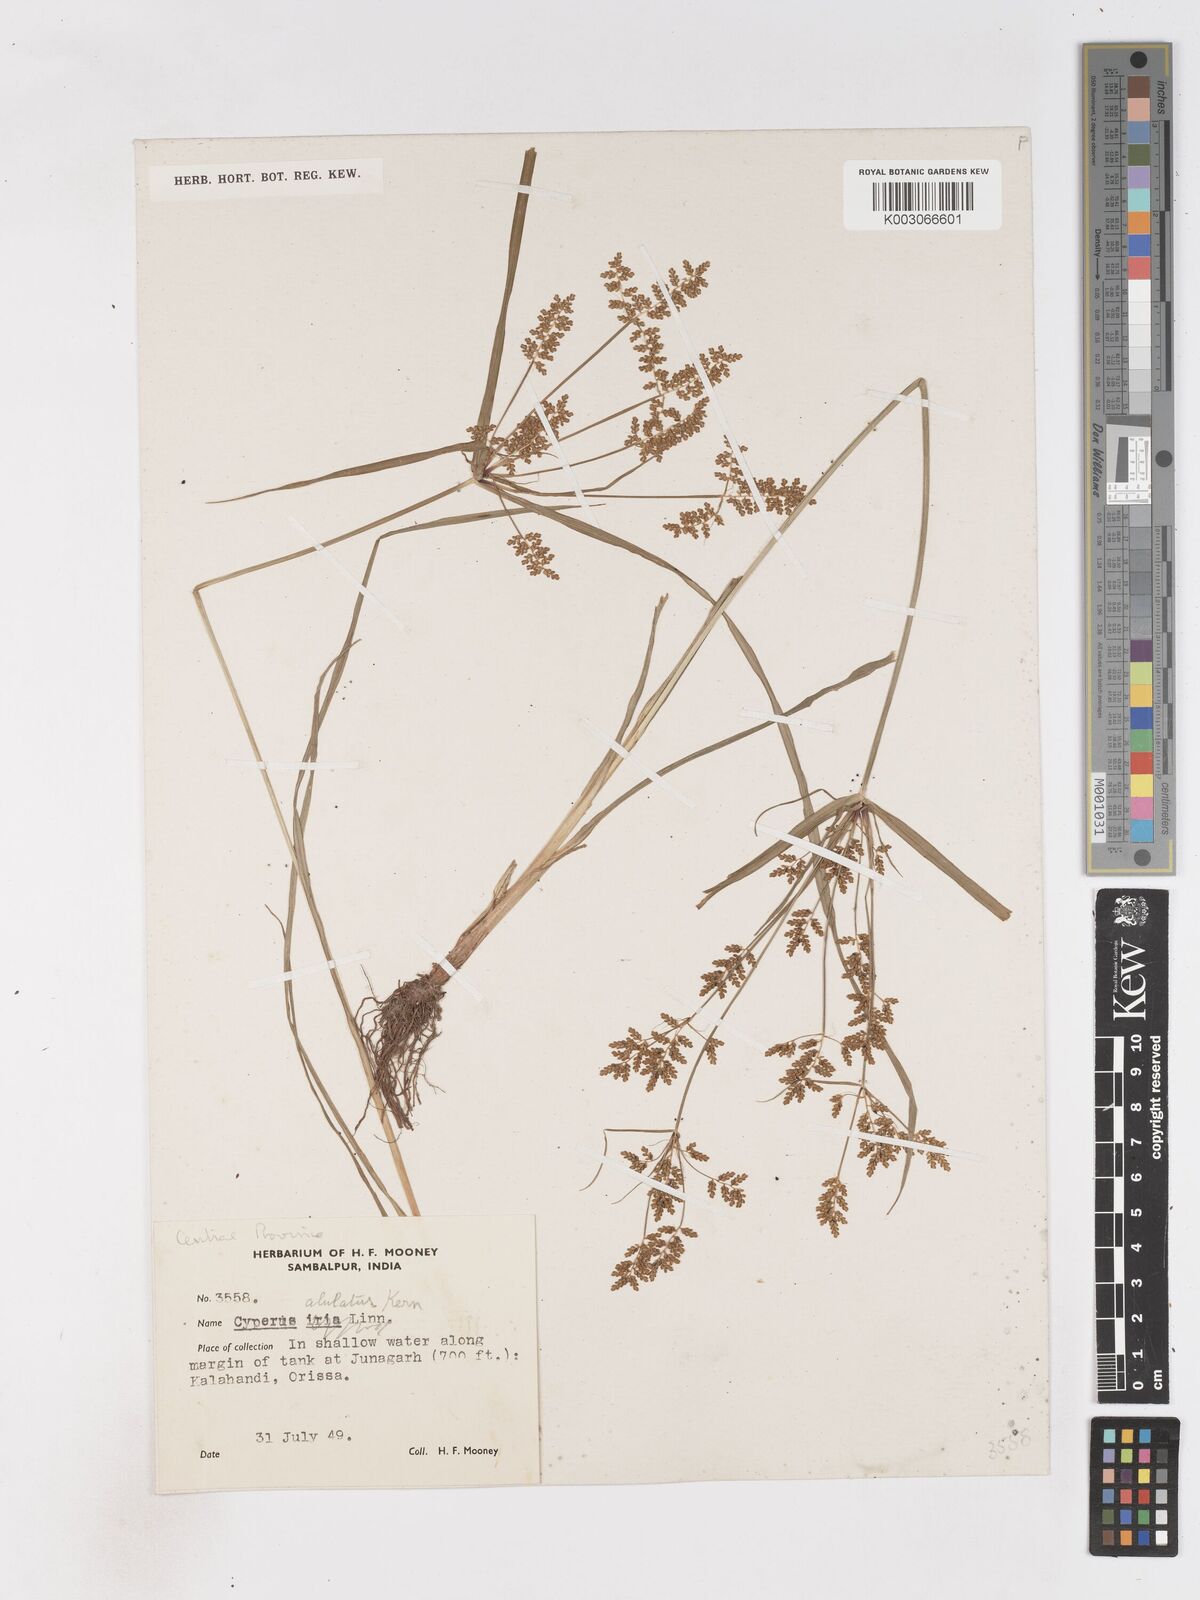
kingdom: Plantae
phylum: Tracheophyta
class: Liliopsida
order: Poales
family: Cyperaceae
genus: Cyperus
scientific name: Cyperus alulatus
